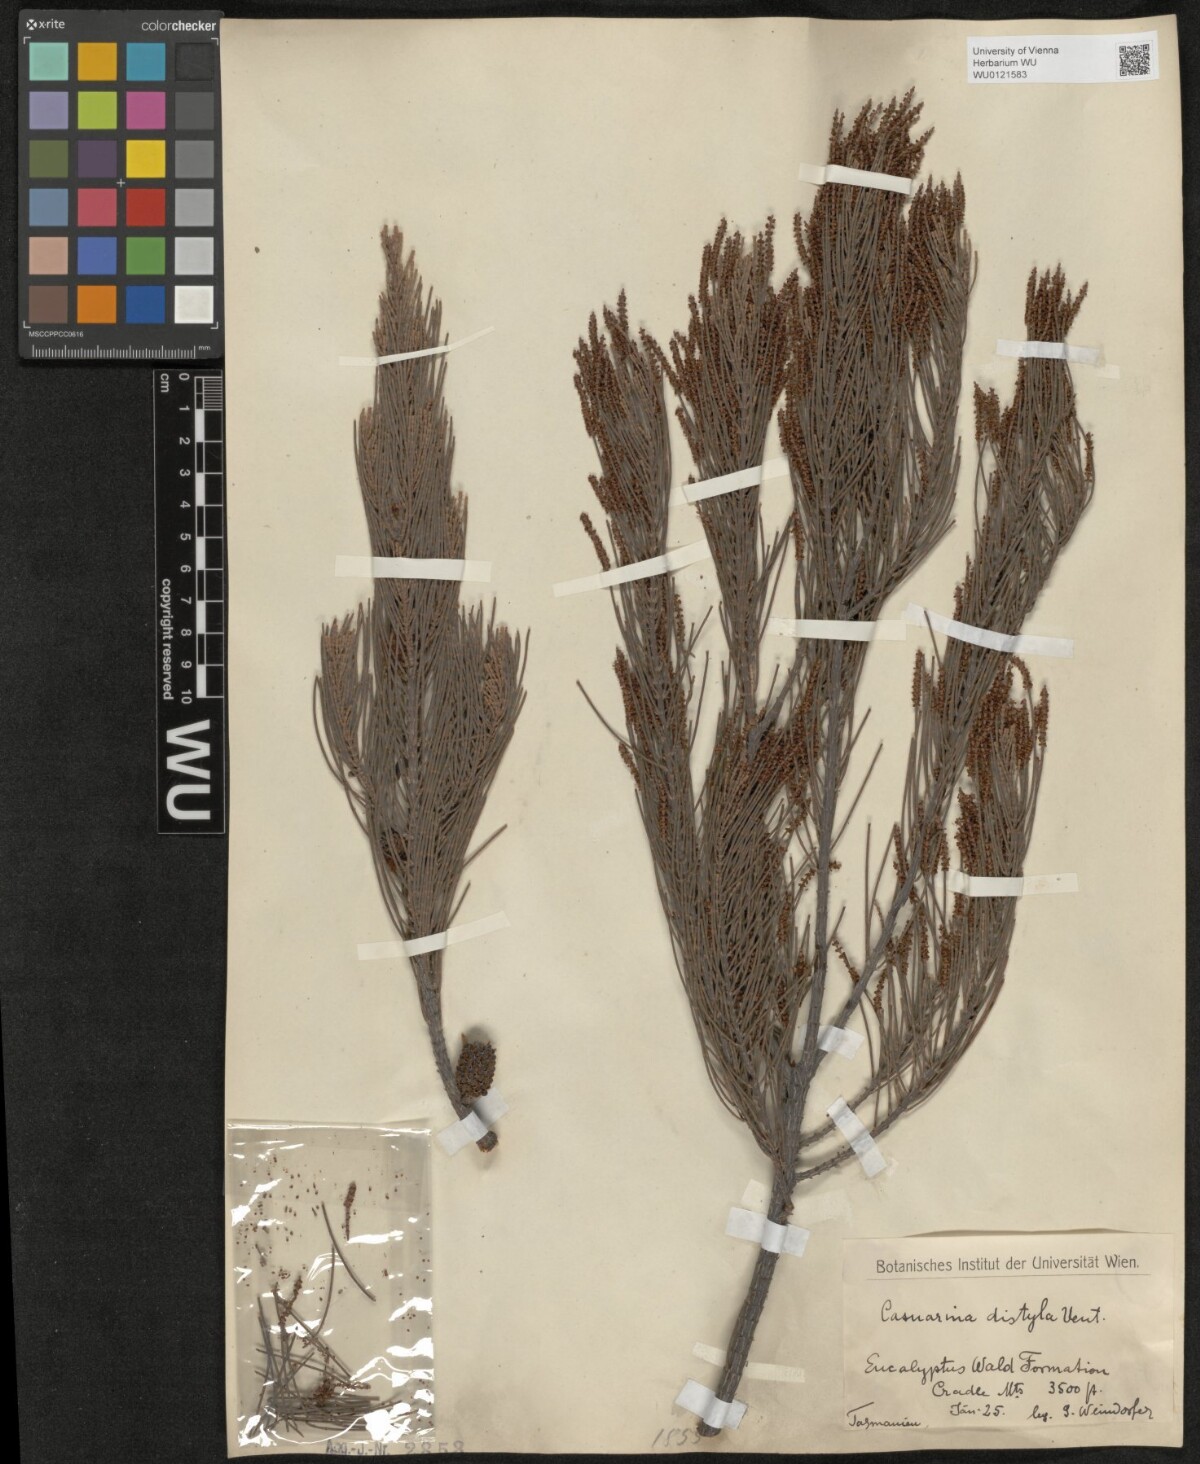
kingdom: Plantae
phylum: Tracheophyta
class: Magnoliopsida
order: Fagales
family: Casuarinaceae
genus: Allocasuarina
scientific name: Allocasuarina distyla
